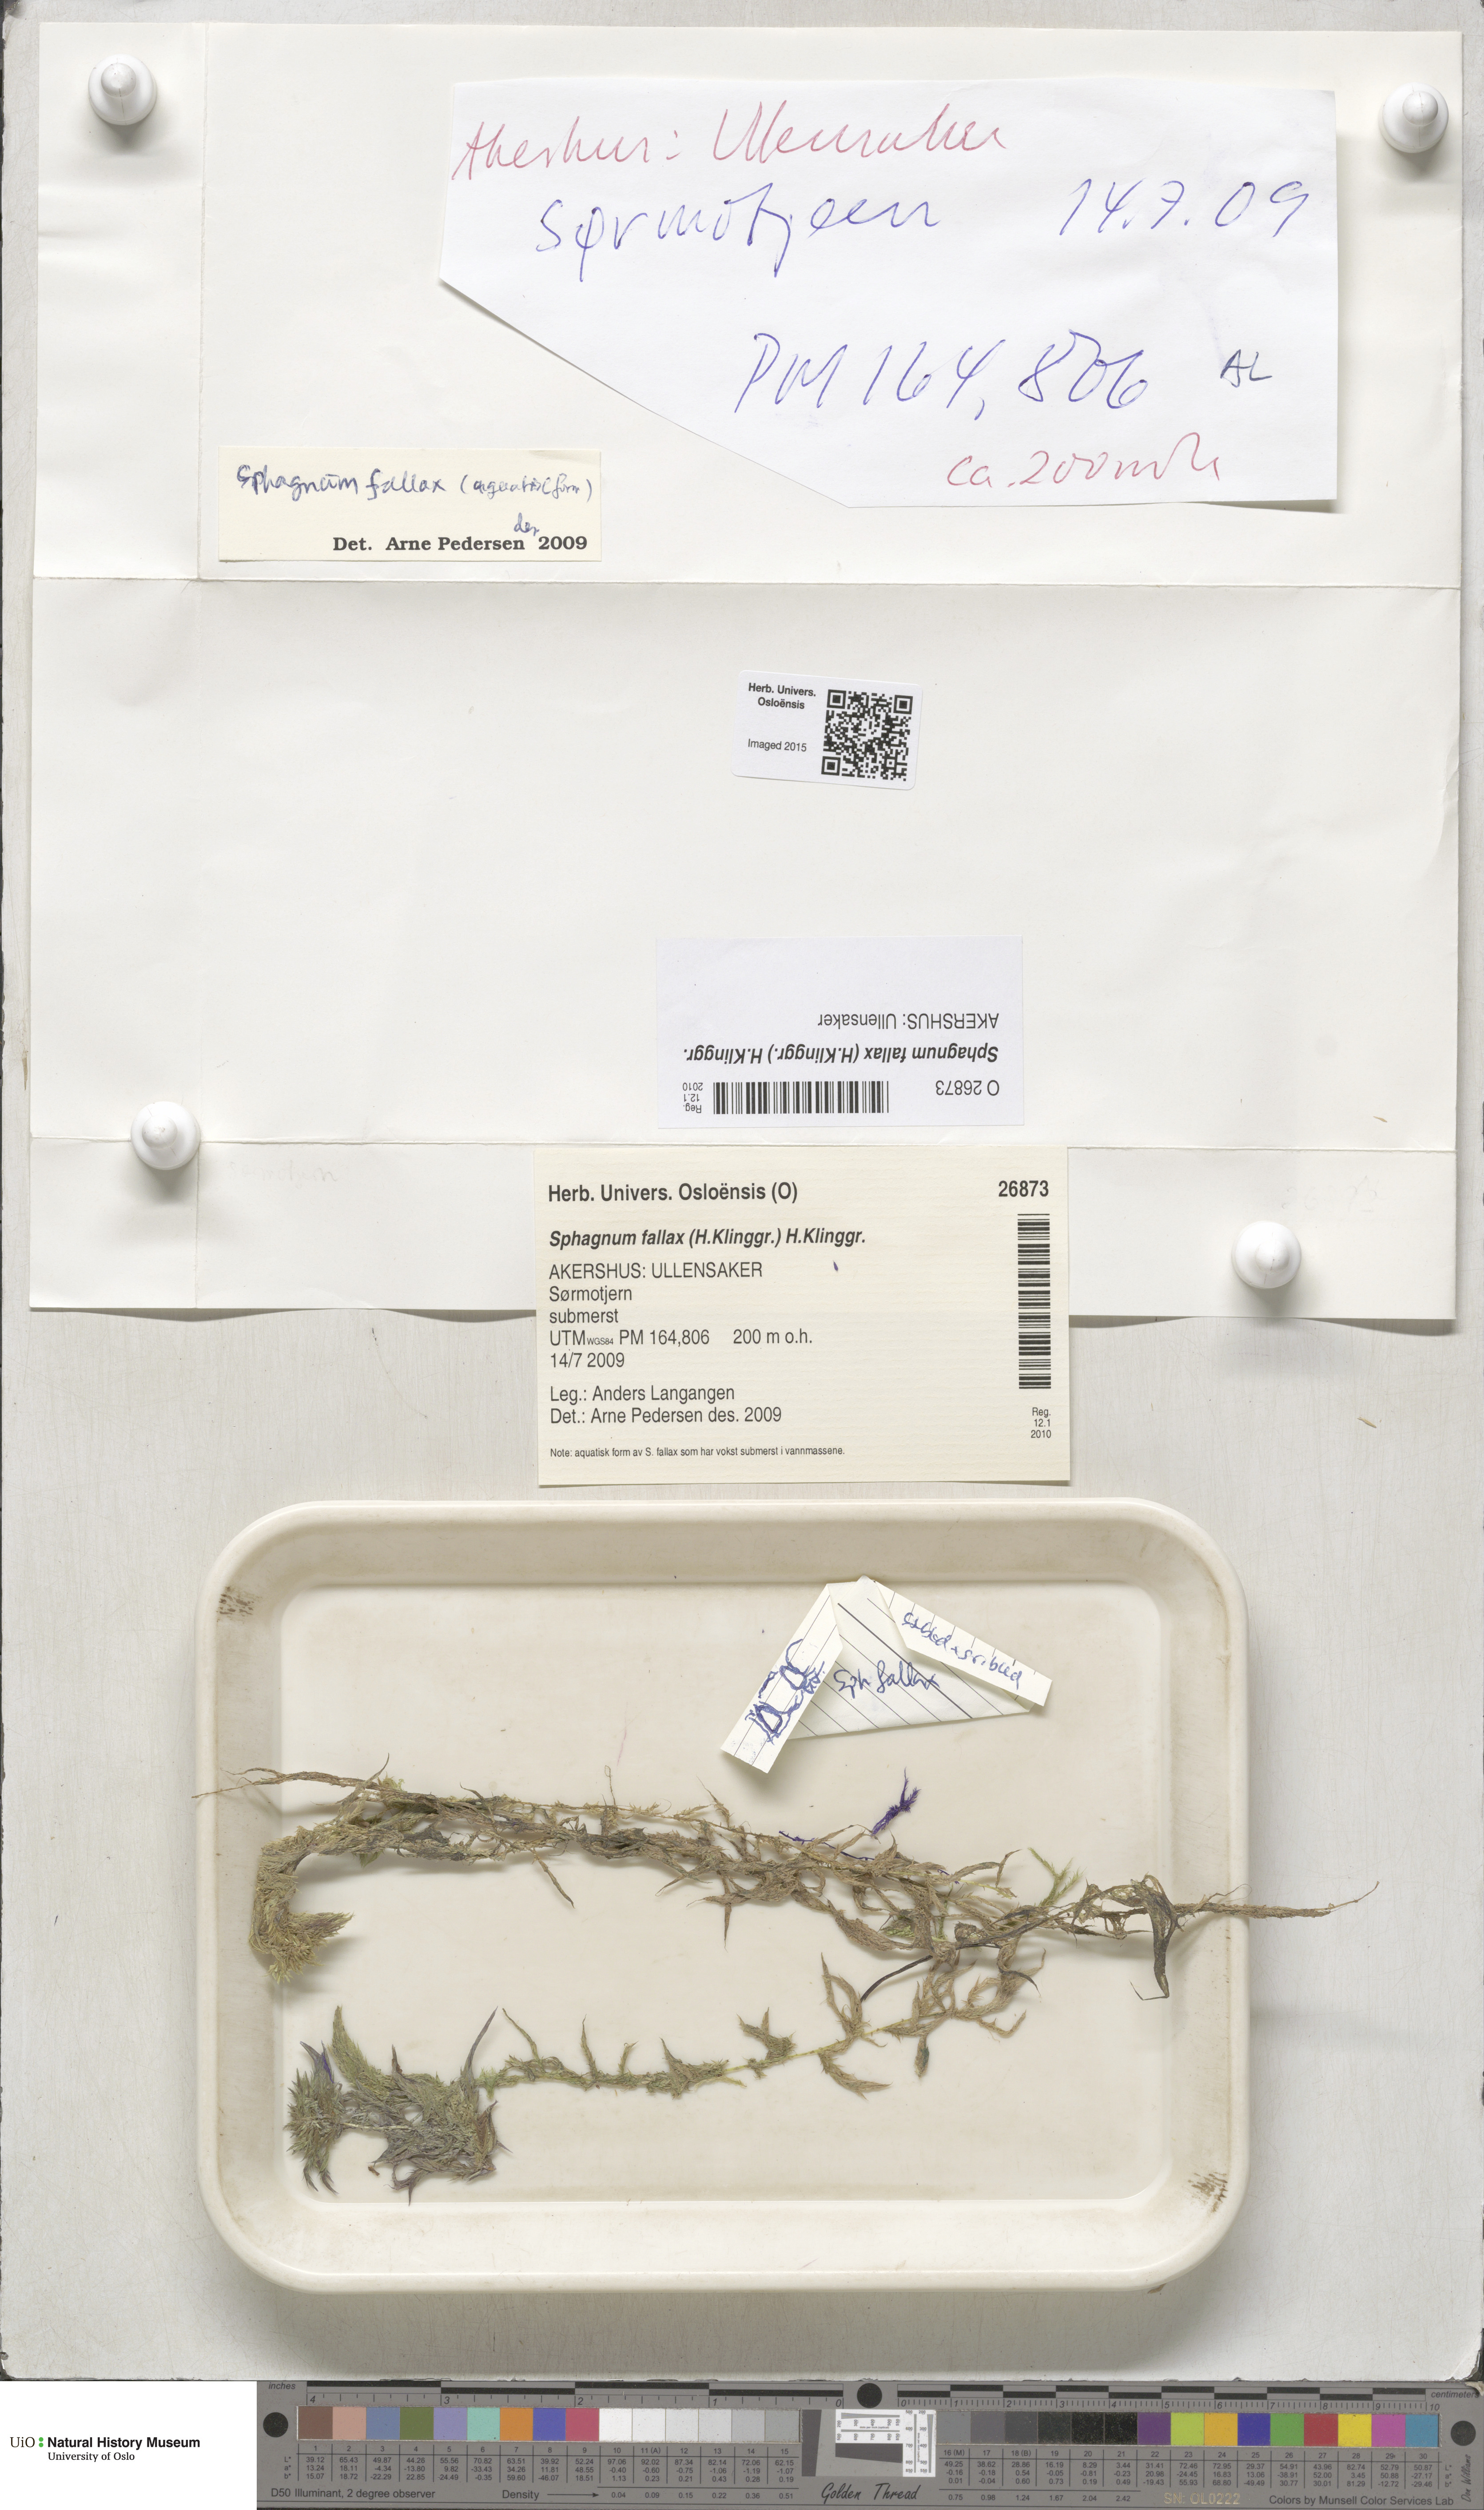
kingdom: Plantae
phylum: Bryophyta
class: Sphagnopsida
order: Sphagnales
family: Sphagnaceae
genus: Sphagnum
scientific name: Sphagnum fallax
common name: Flat-top peat moss
